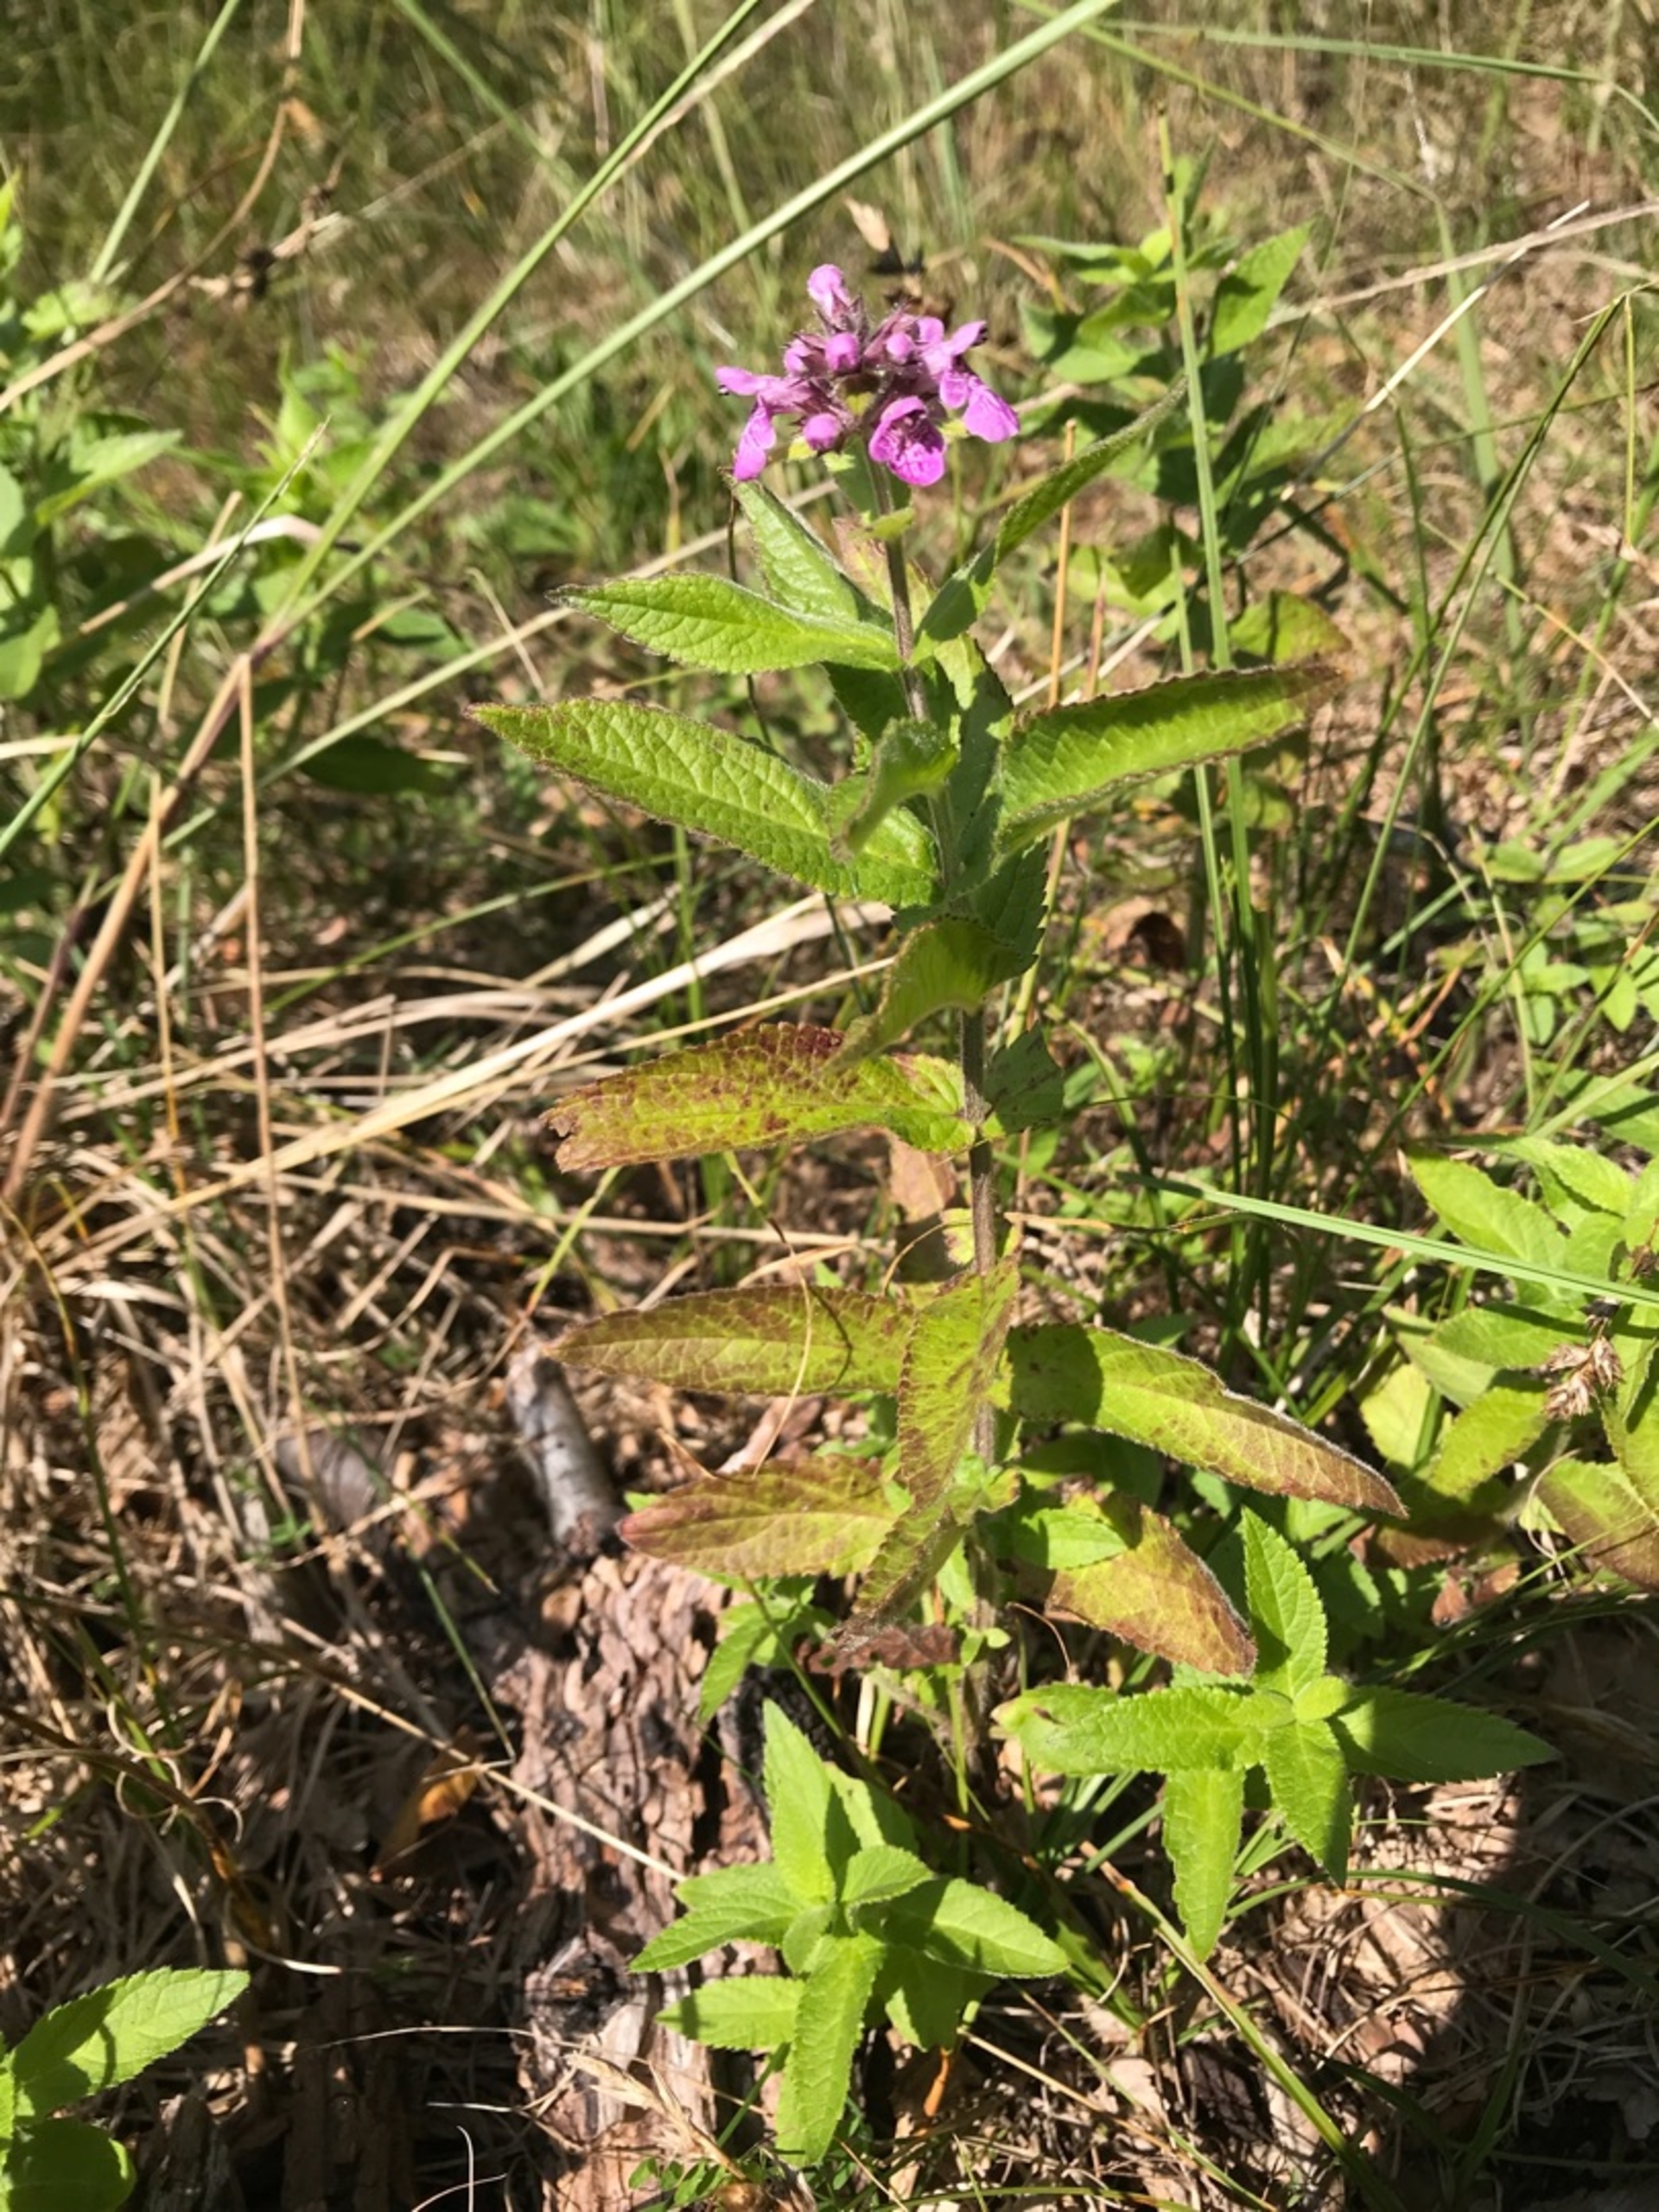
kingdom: Plantae
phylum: Tracheophyta
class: Magnoliopsida
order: Lamiales
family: Lamiaceae
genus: Stachys
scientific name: Stachys palustris
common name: Kær-galtetand
